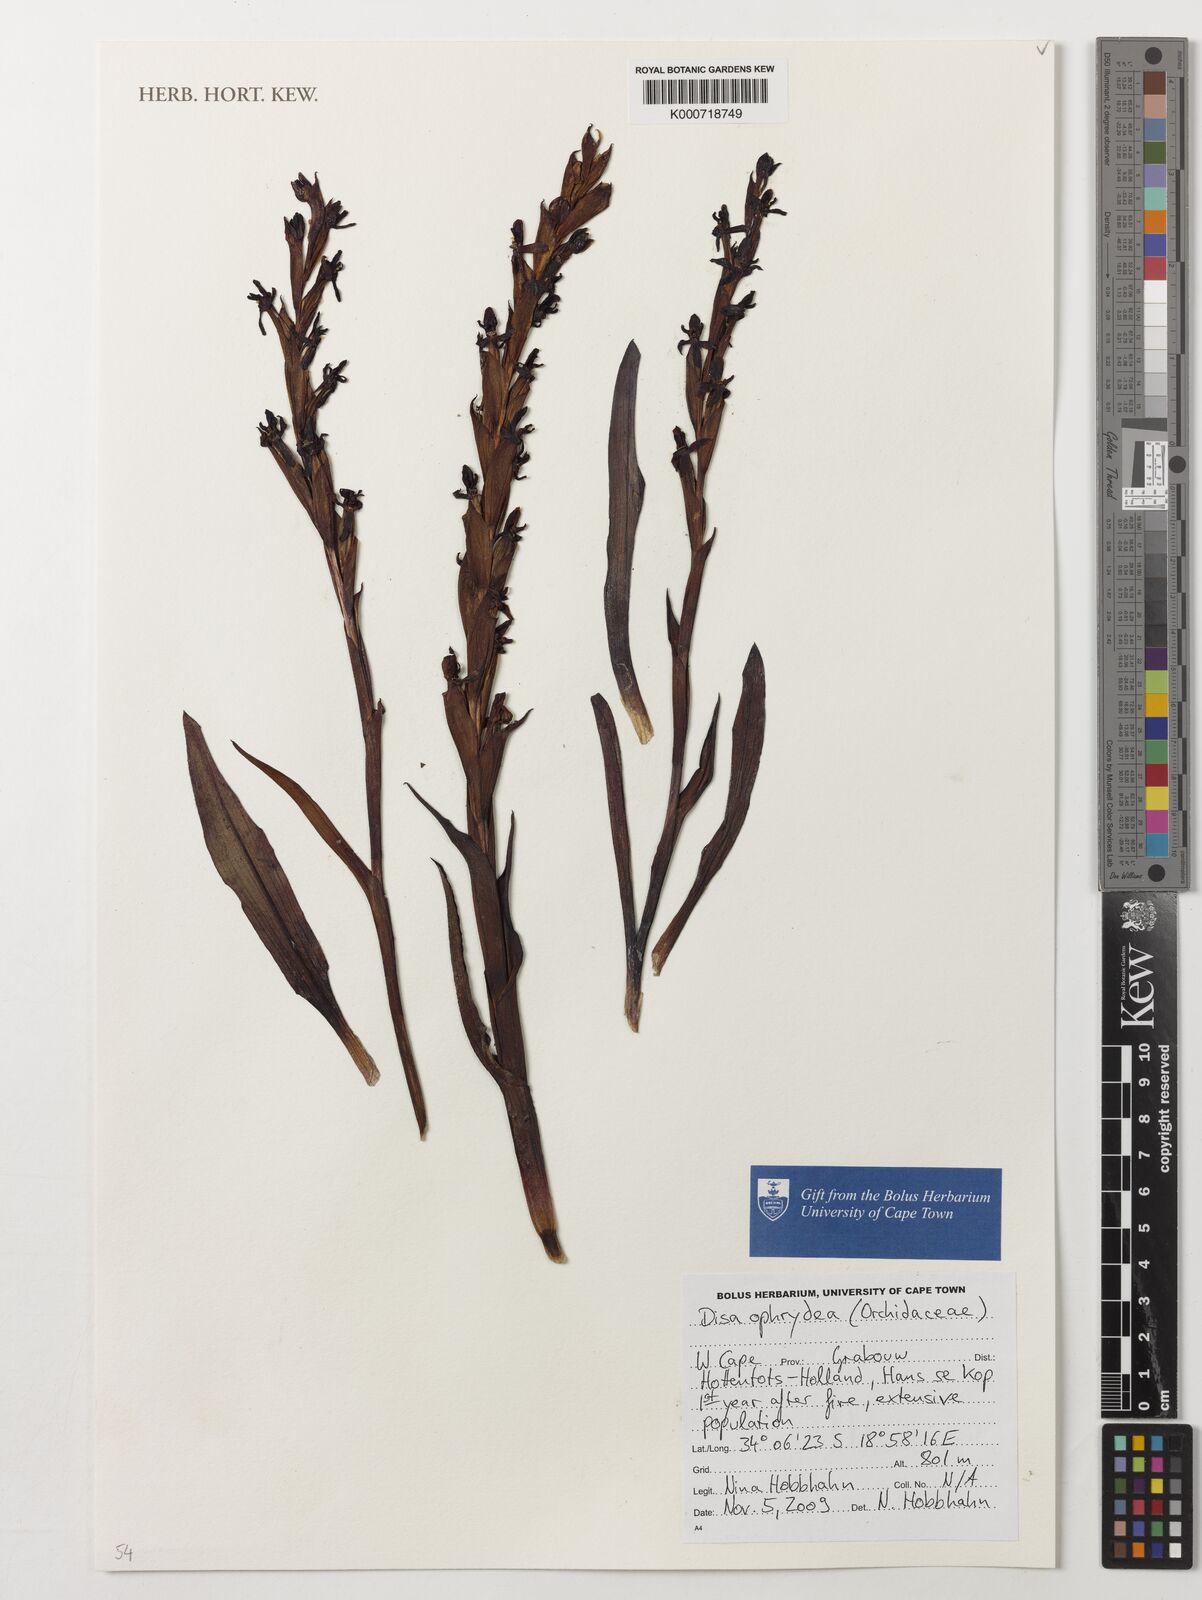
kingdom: Plantae
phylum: Tracheophyta
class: Liliopsida
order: Asparagales
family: Orchidaceae
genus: Disa
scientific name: Disa ophrydea
